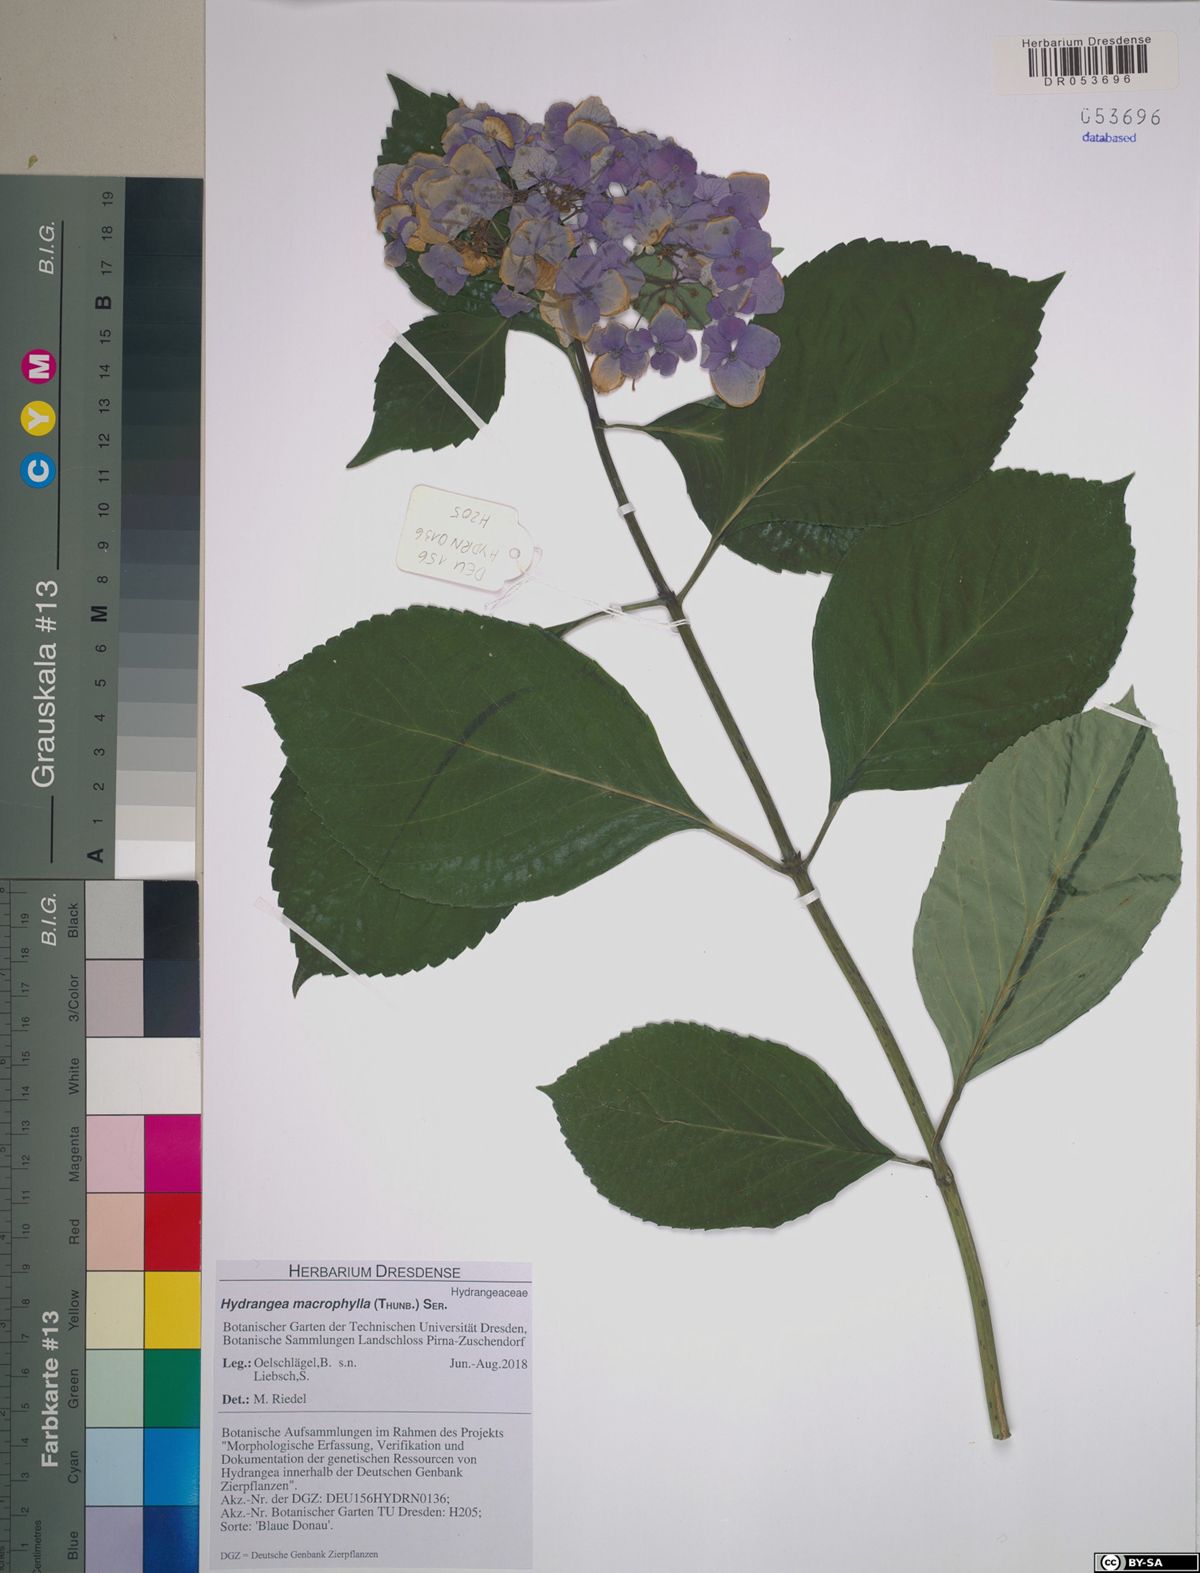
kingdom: Plantae
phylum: Tracheophyta
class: Magnoliopsida
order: Cornales
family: Hydrangeaceae
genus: Hydrangea
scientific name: Hydrangea macrophylla
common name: Hydrangea
